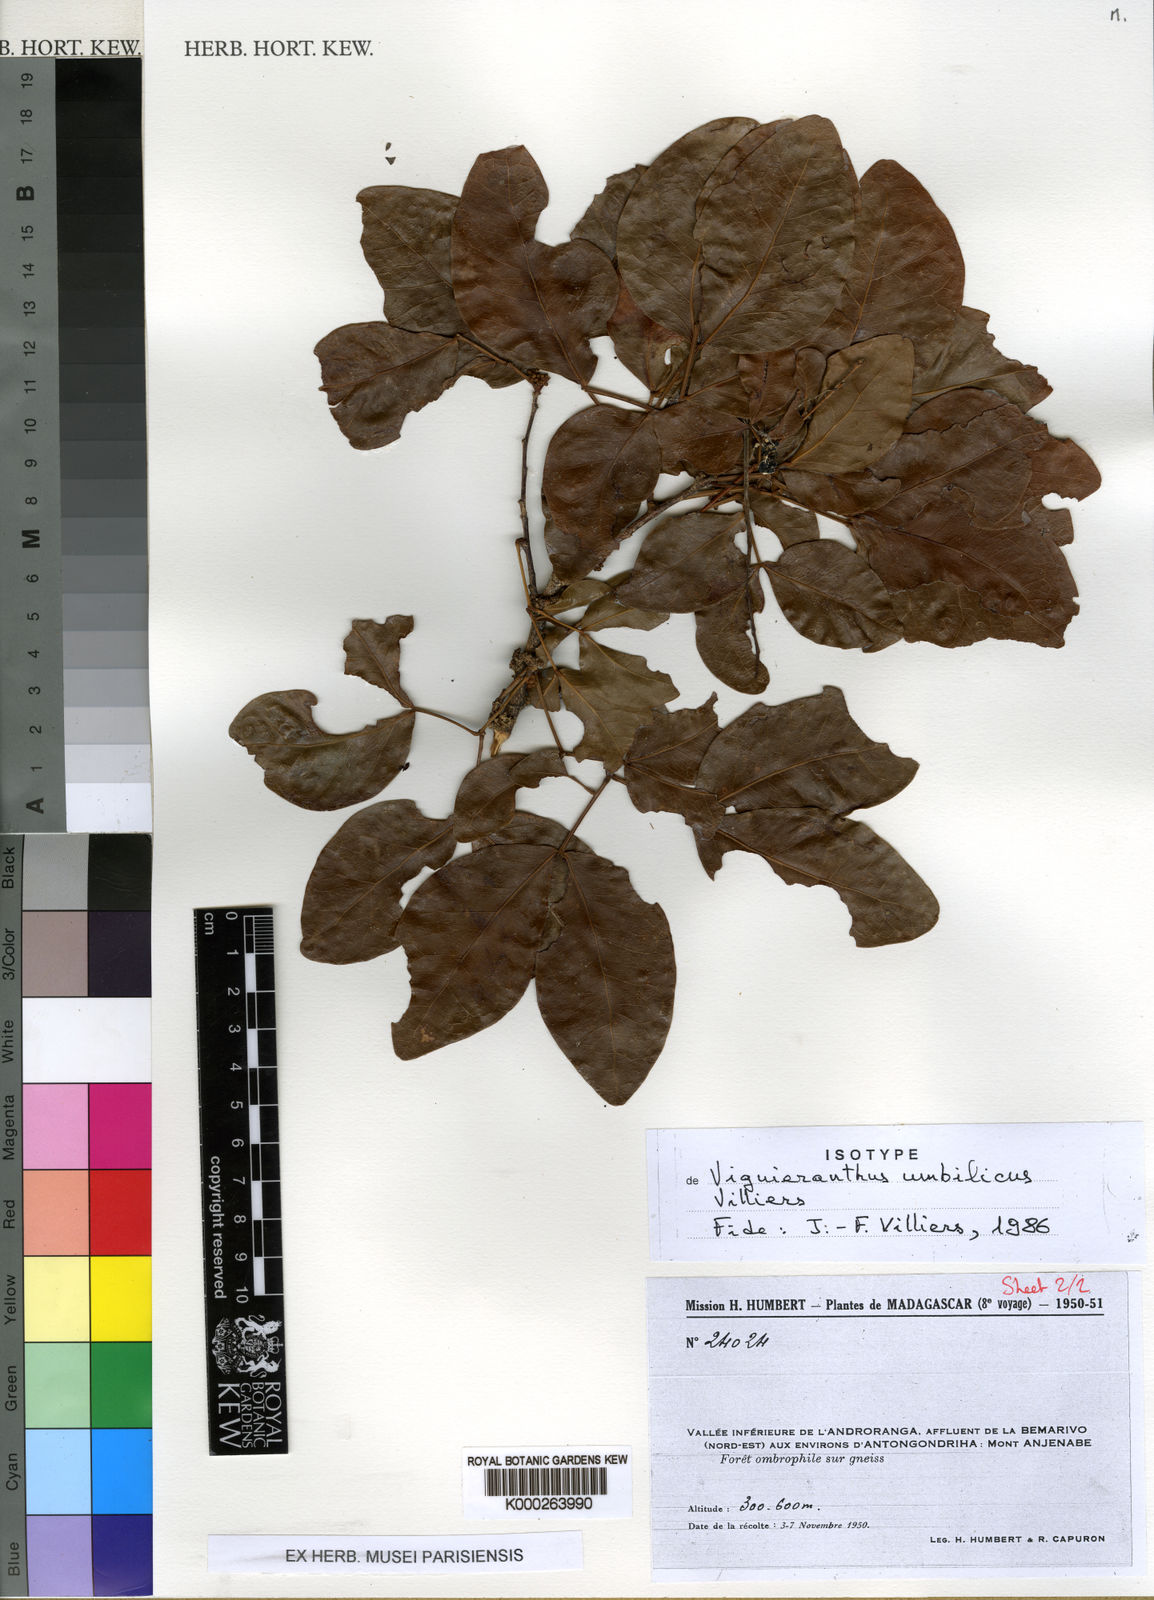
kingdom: Plantae
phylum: Tracheophyta
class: Magnoliopsida
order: Fabales
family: Fabaceae
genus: Viguieranthus
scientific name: Viguieranthus umbilicus
